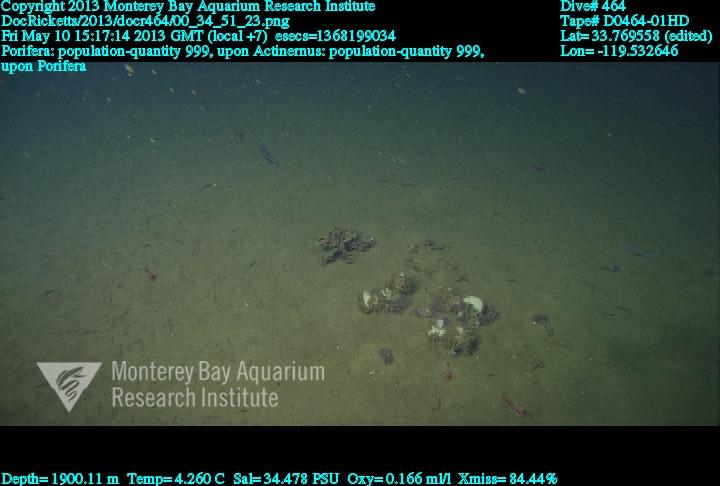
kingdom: Animalia
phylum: Porifera
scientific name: Porifera
